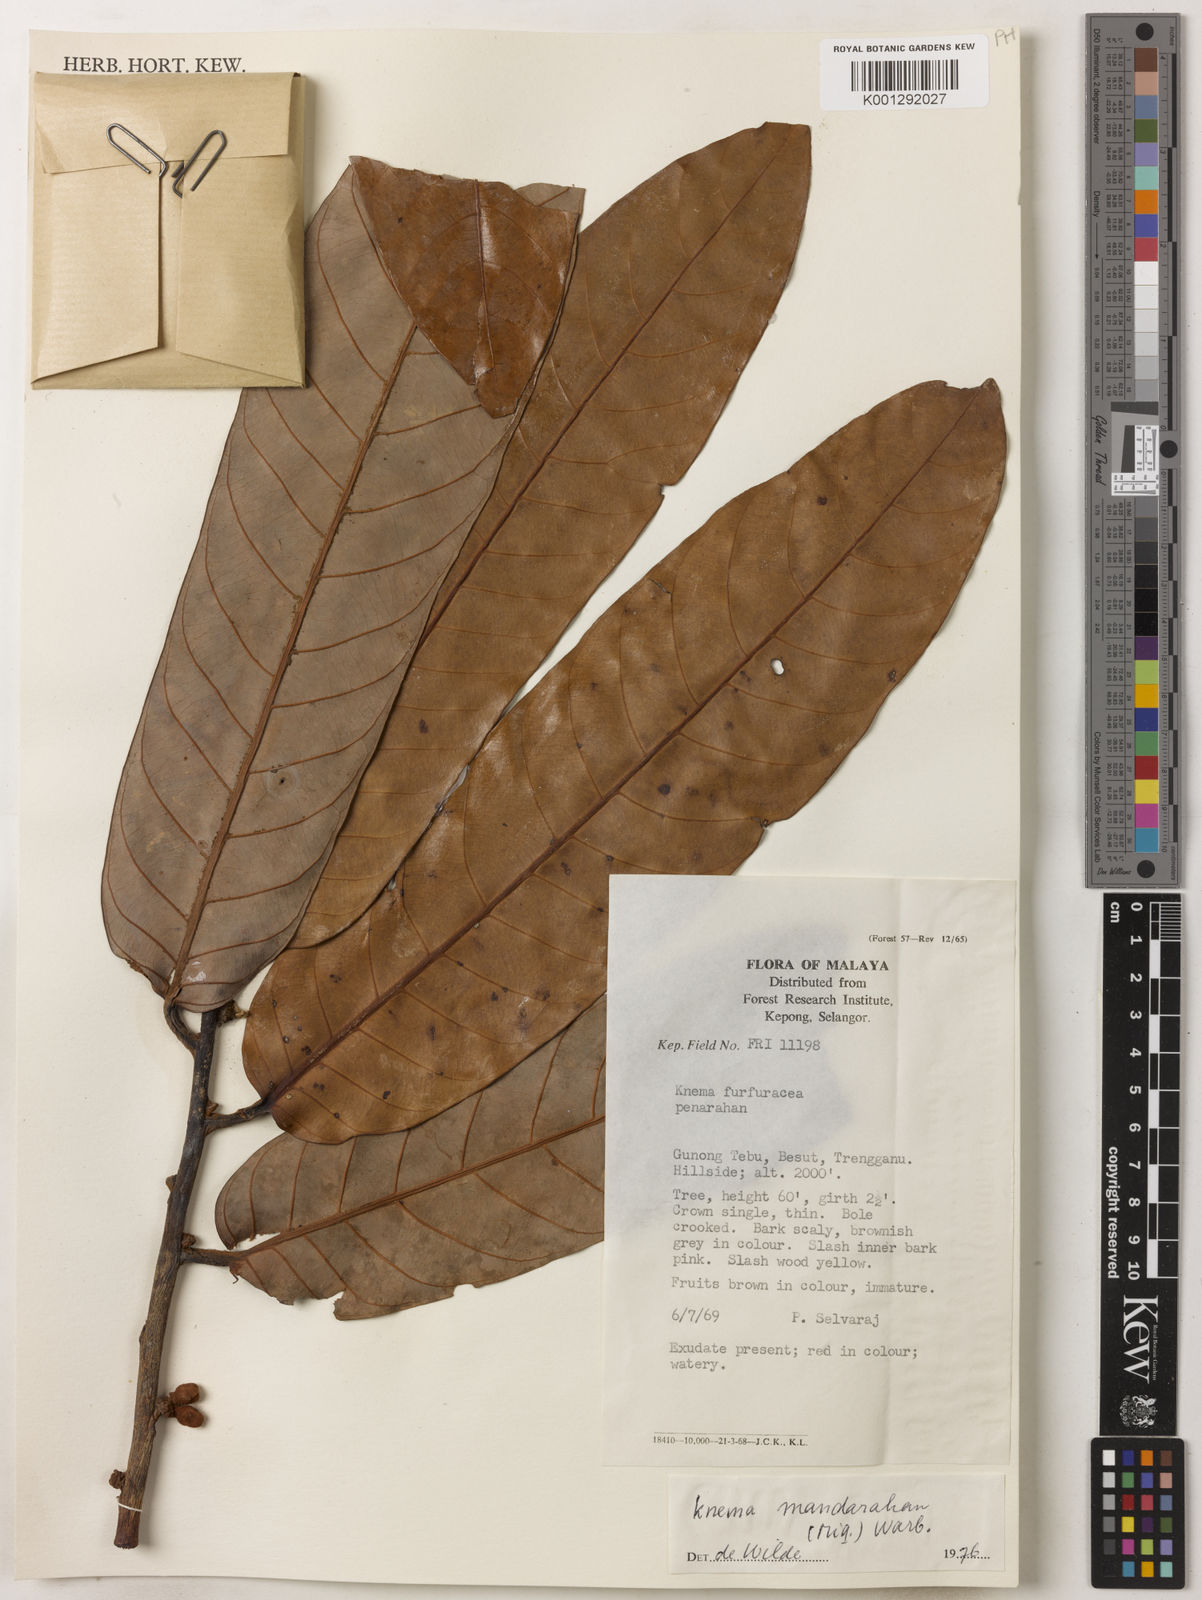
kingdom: Plantae
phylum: Tracheophyta
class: Magnoliopsida
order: Magnoliales
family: Myristicaceae
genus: Knema
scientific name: Knema mandaharan
